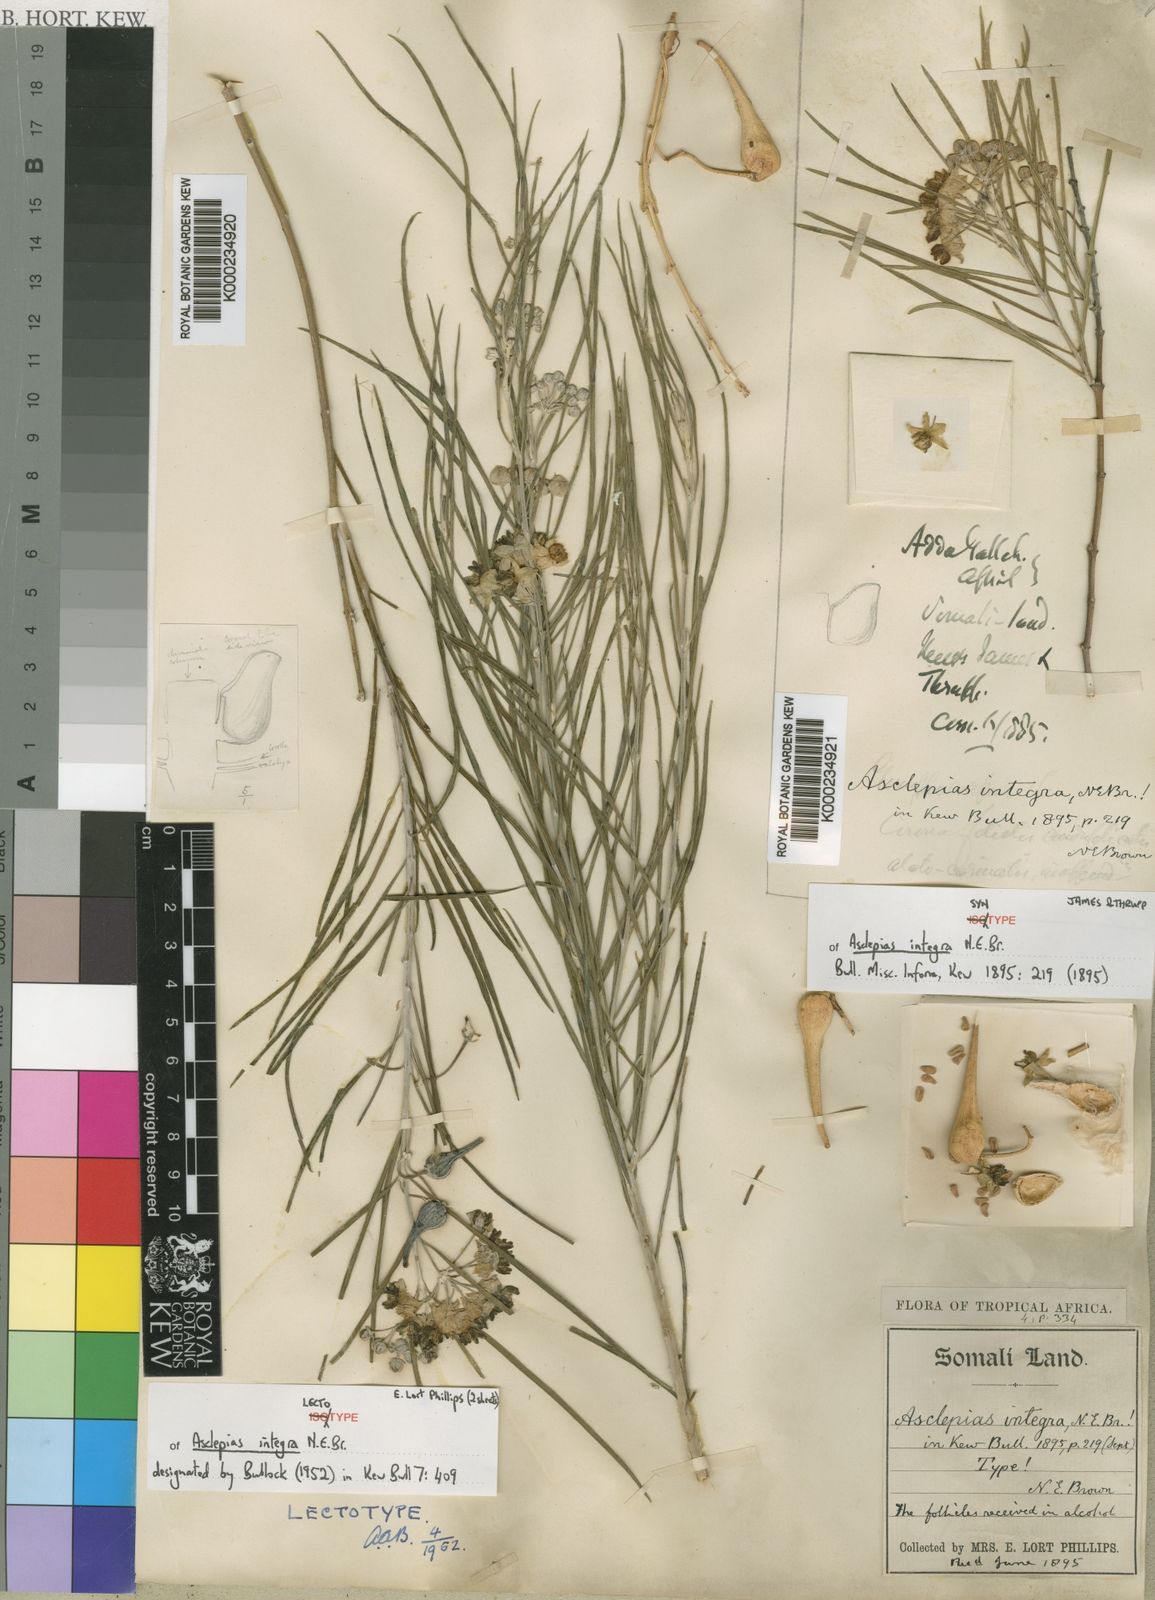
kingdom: Plantae
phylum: Tracheophyta
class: Magnoliopsida
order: Gentianales
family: Apocynaceae
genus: Gomphocarpus
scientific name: Gomphocarpus integer
